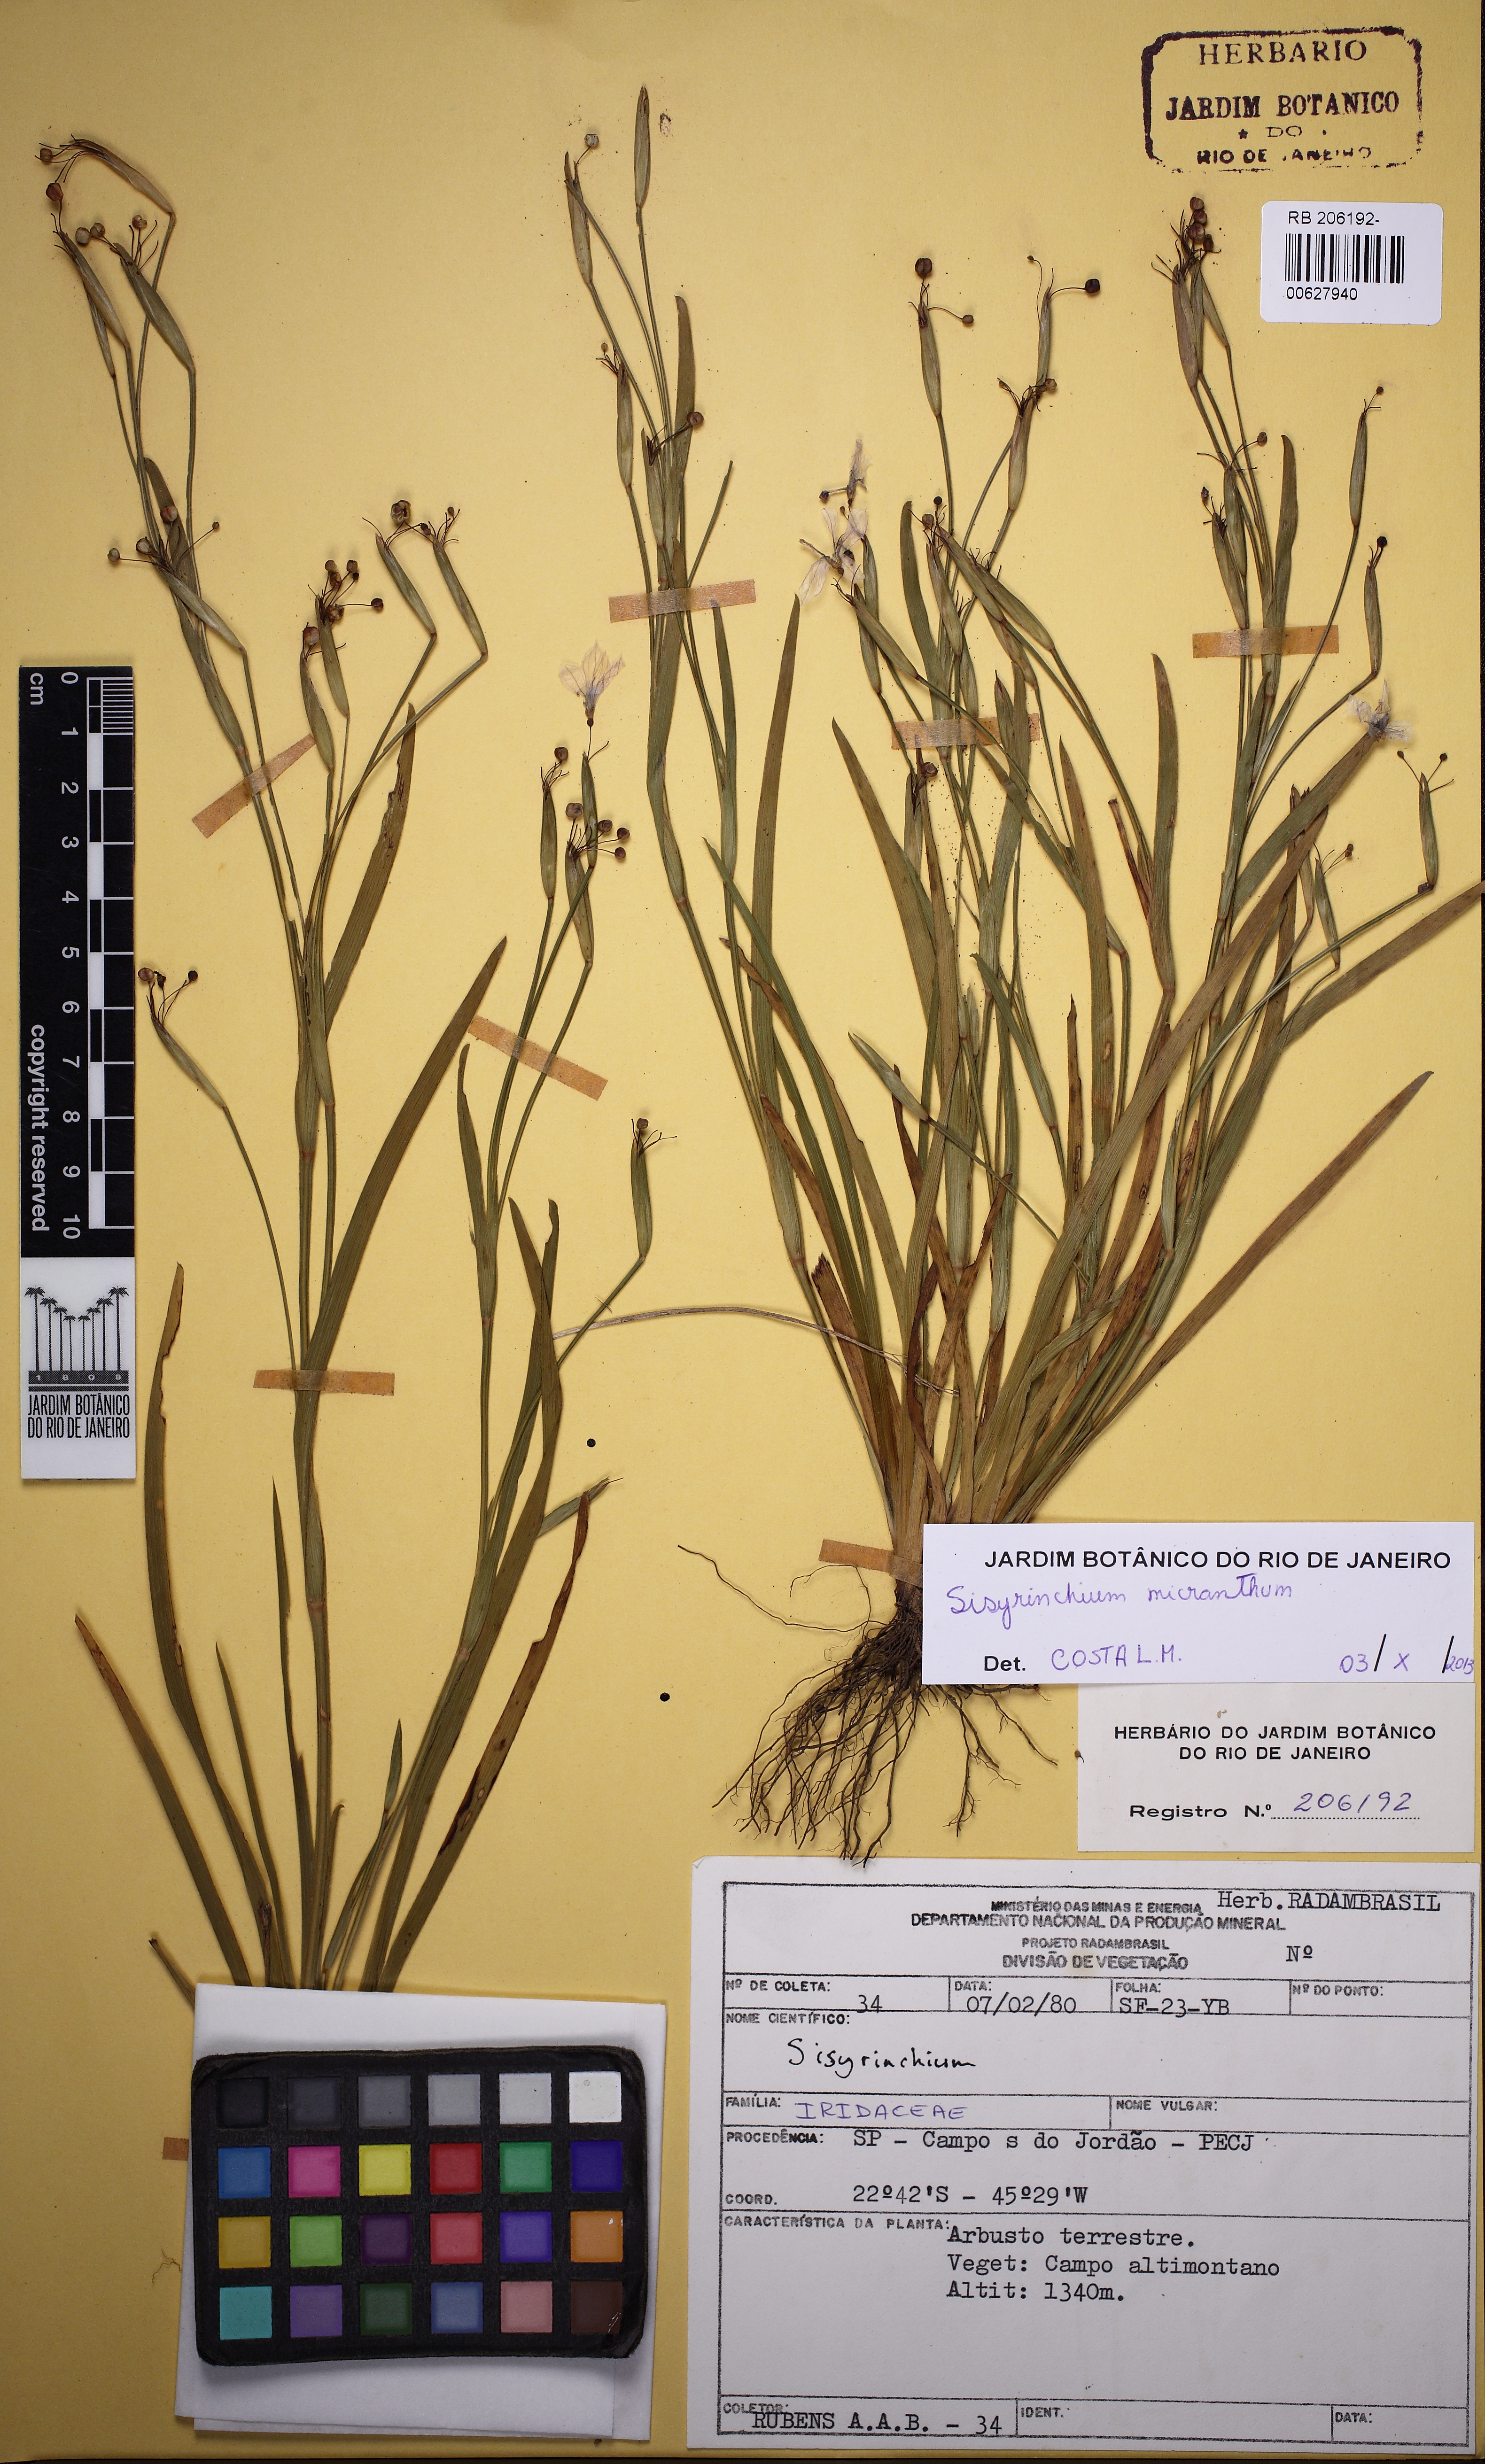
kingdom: Plantae
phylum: Tracheophyta
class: Liliopsida
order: Asparagales
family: Iridaceae
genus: Sisyrinchium
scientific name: Sisyrinchium micranthum
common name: Bermuda pigroot
